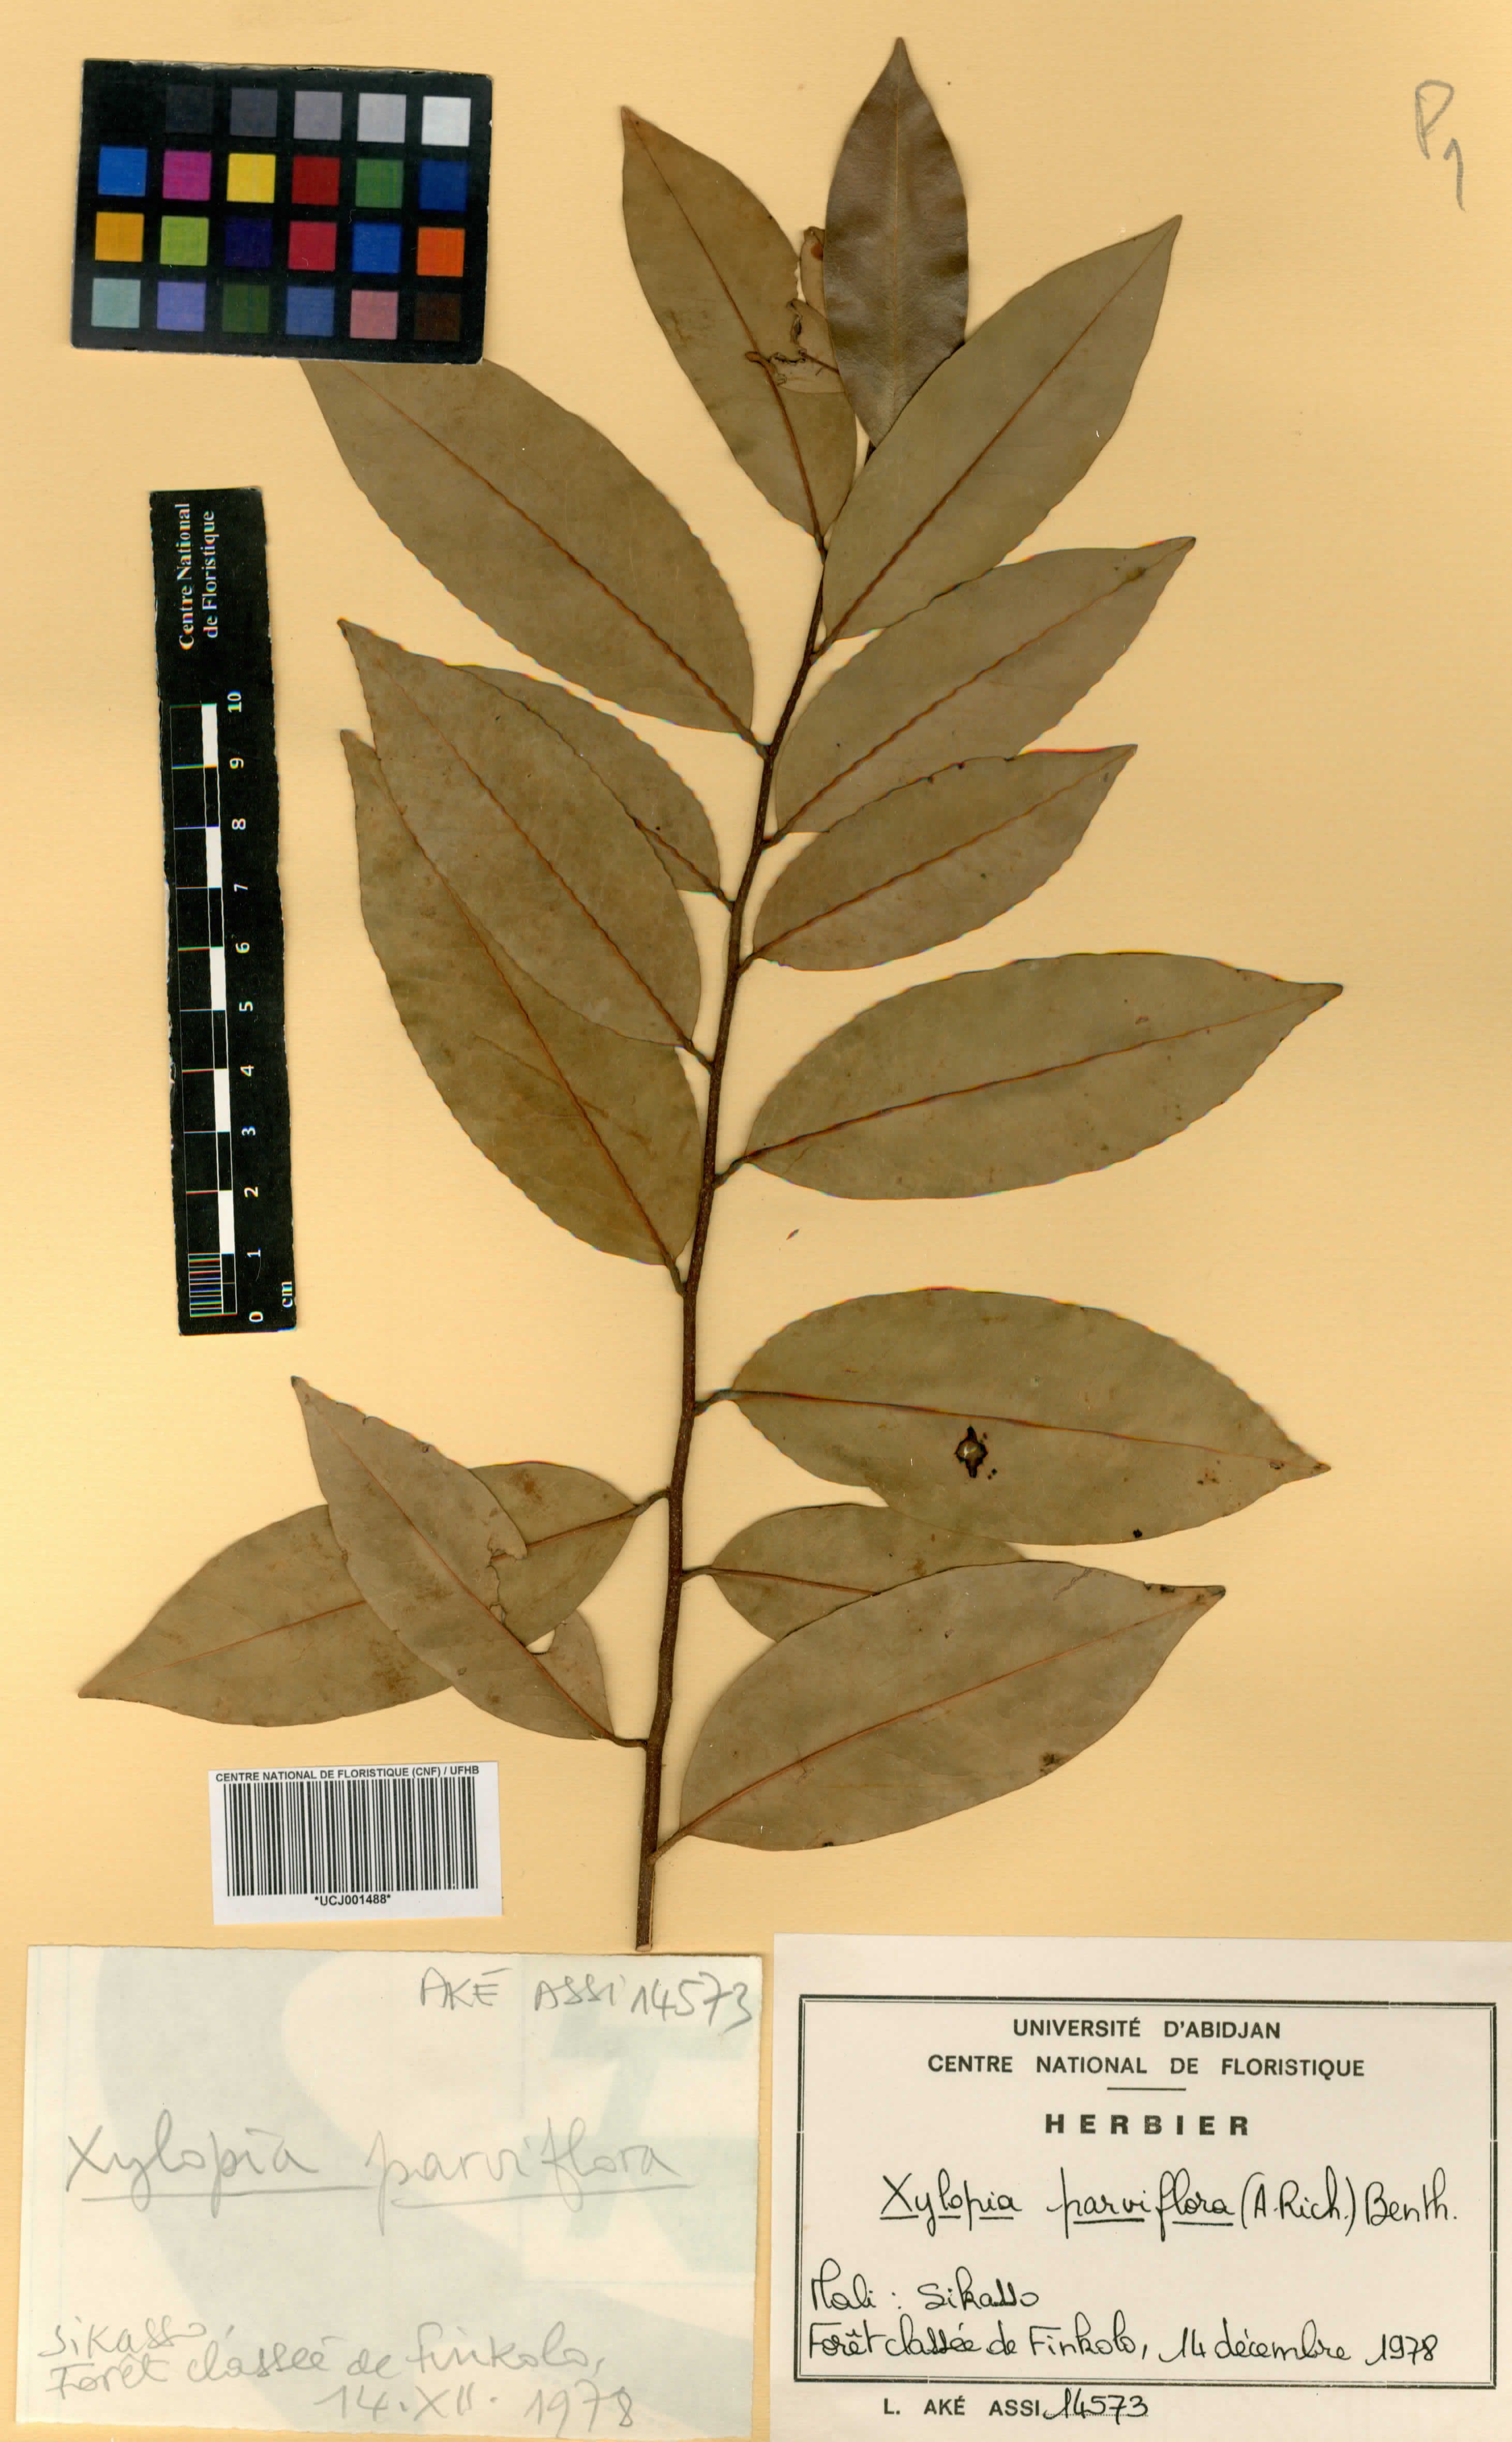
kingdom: Plantae
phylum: Tracheophyta
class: Magnoliopsida
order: Magnoliales
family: Annonaceae
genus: Xylopia
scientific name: Xylopia parviflora
